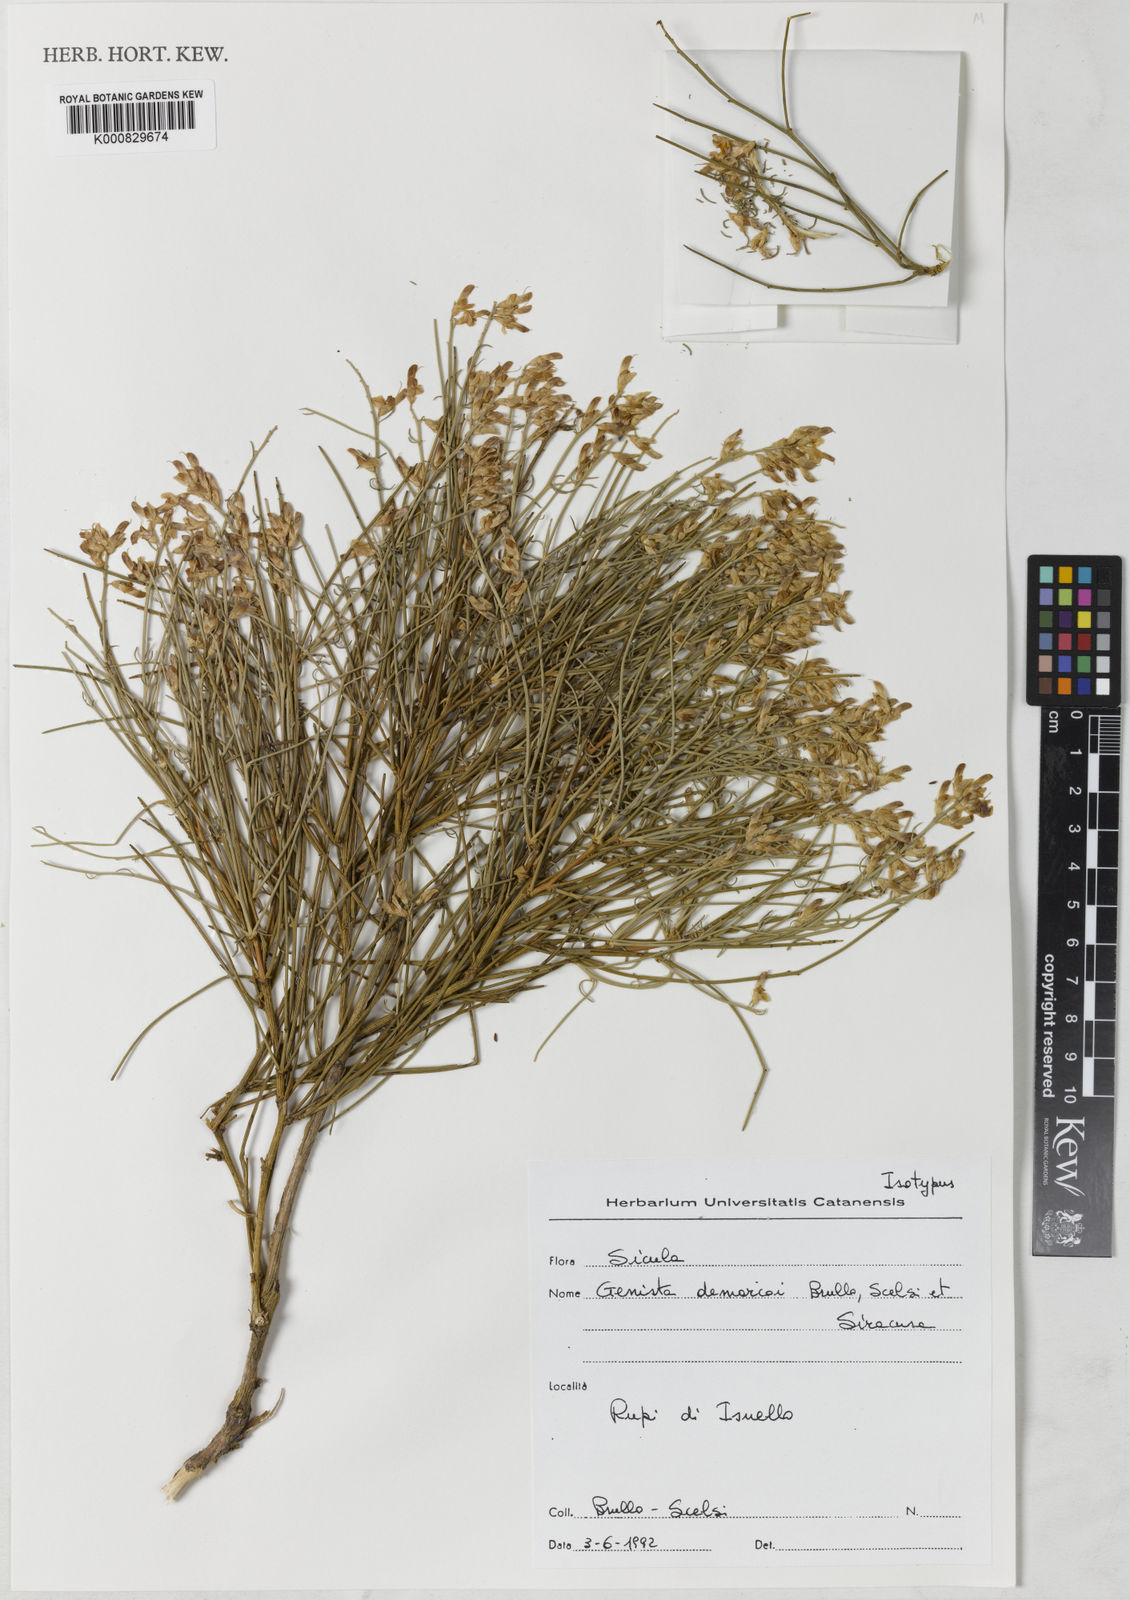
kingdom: Plantae
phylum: Tracheophyta
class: Magnoliopsida
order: Fabales
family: Fabaceae
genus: Genista
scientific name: Genista demarcoi
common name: De marco's broom
